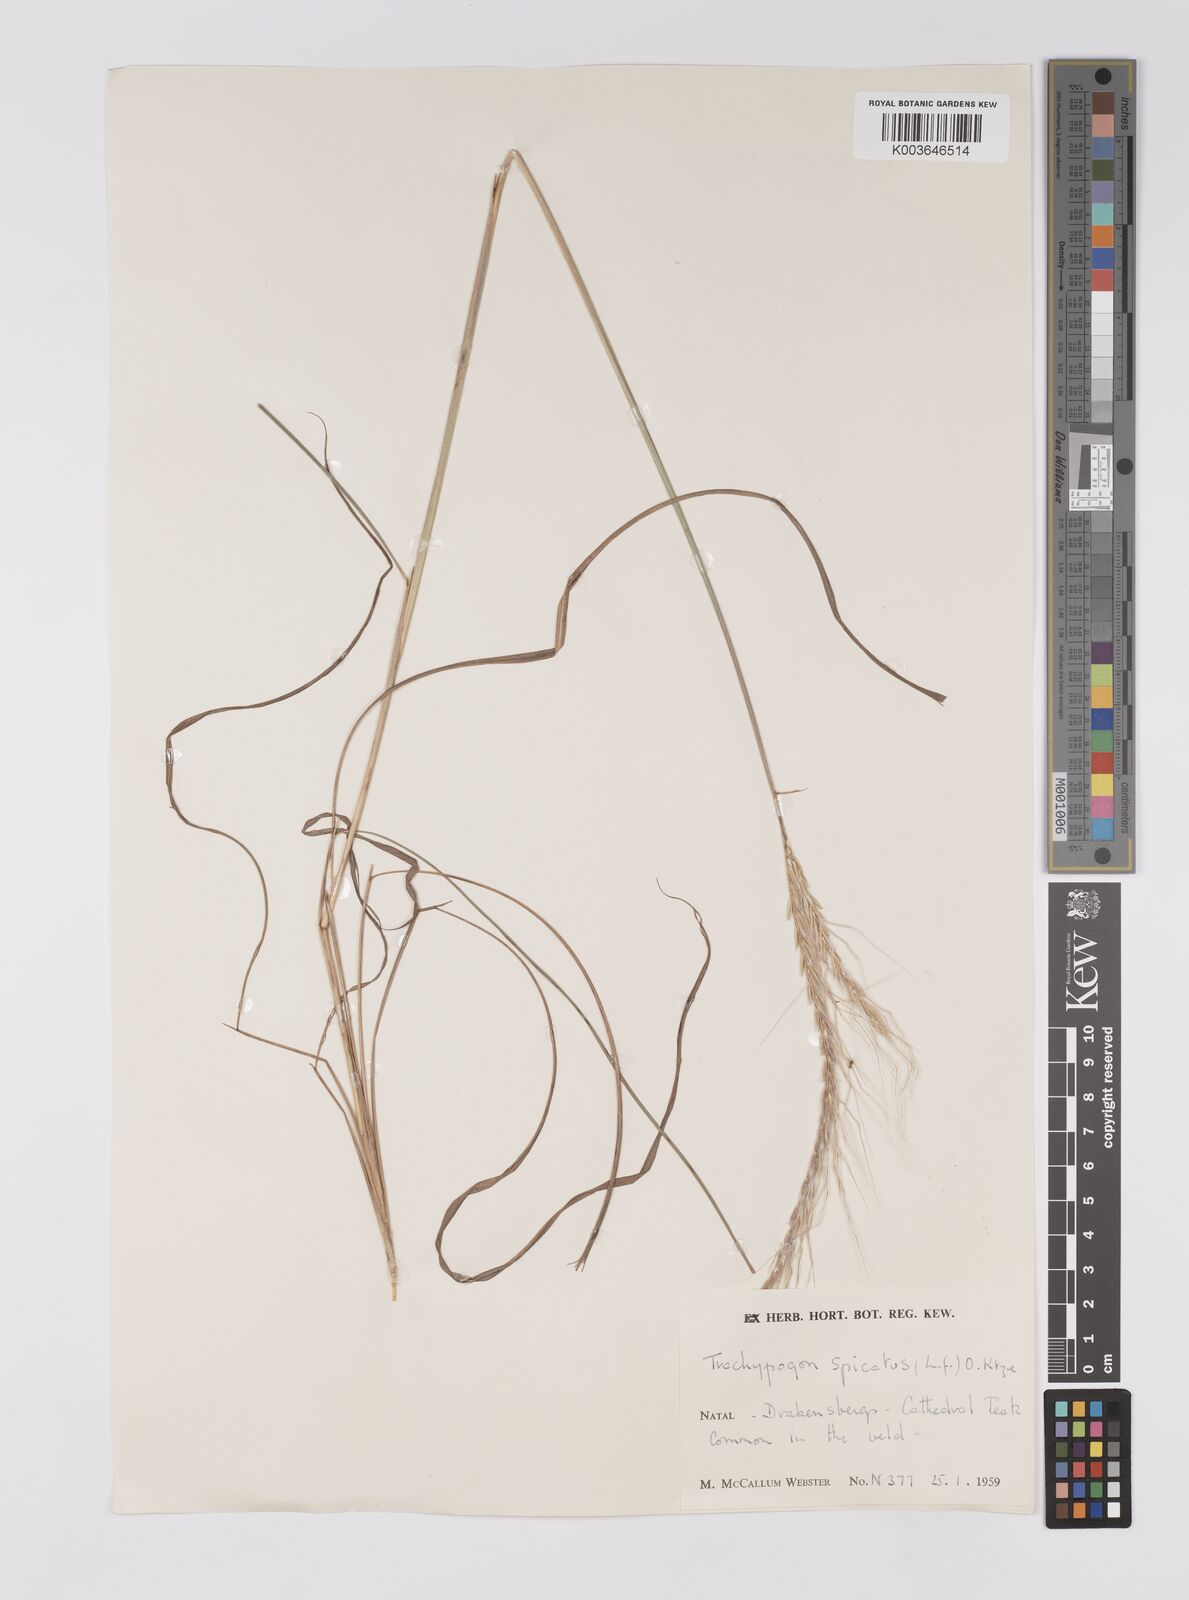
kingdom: Plantae
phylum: Tracheophyta
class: Liliopsida
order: Poales
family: Poaceae
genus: Trachypogon
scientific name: Trachypogon spicatus
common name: Crinkle-awn
